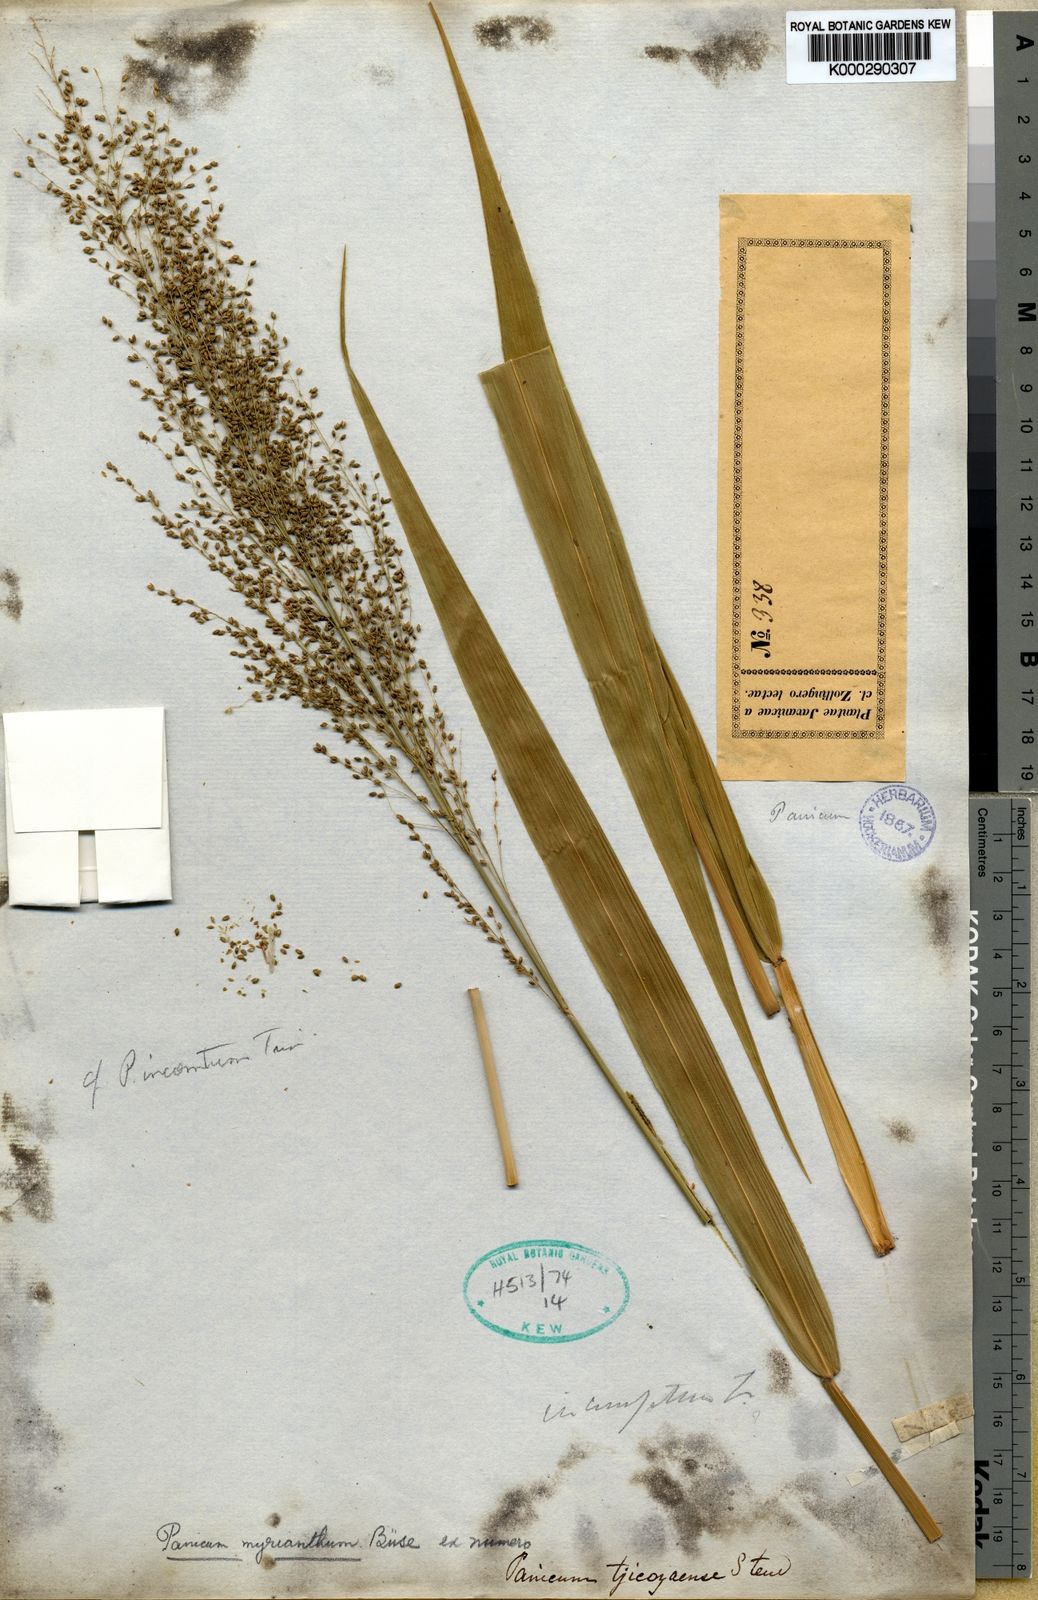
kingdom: Plantae
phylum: Tracheophyta
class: Liliopsida
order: Poales
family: Poaceae
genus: Panicum
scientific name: Panicum sarmentosum
